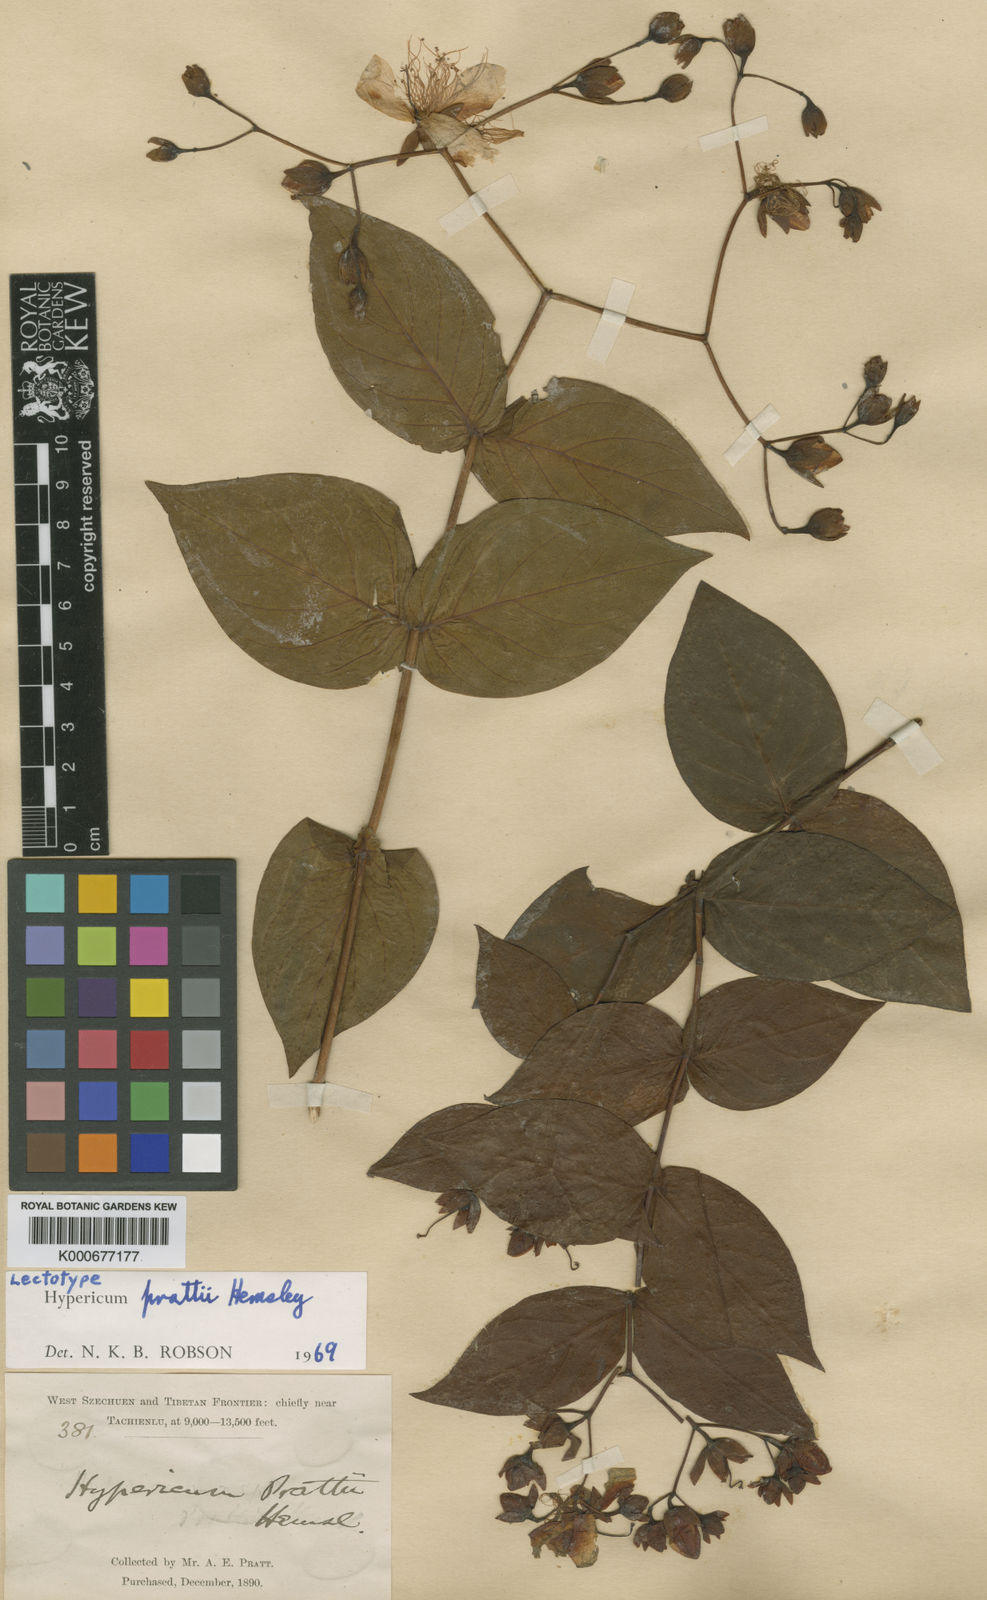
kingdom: Plantae
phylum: Tracheophyta
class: Magnoliopsida
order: Malpighiales
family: Hypericaceae
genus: Hypericum
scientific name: Hypericum prattii
